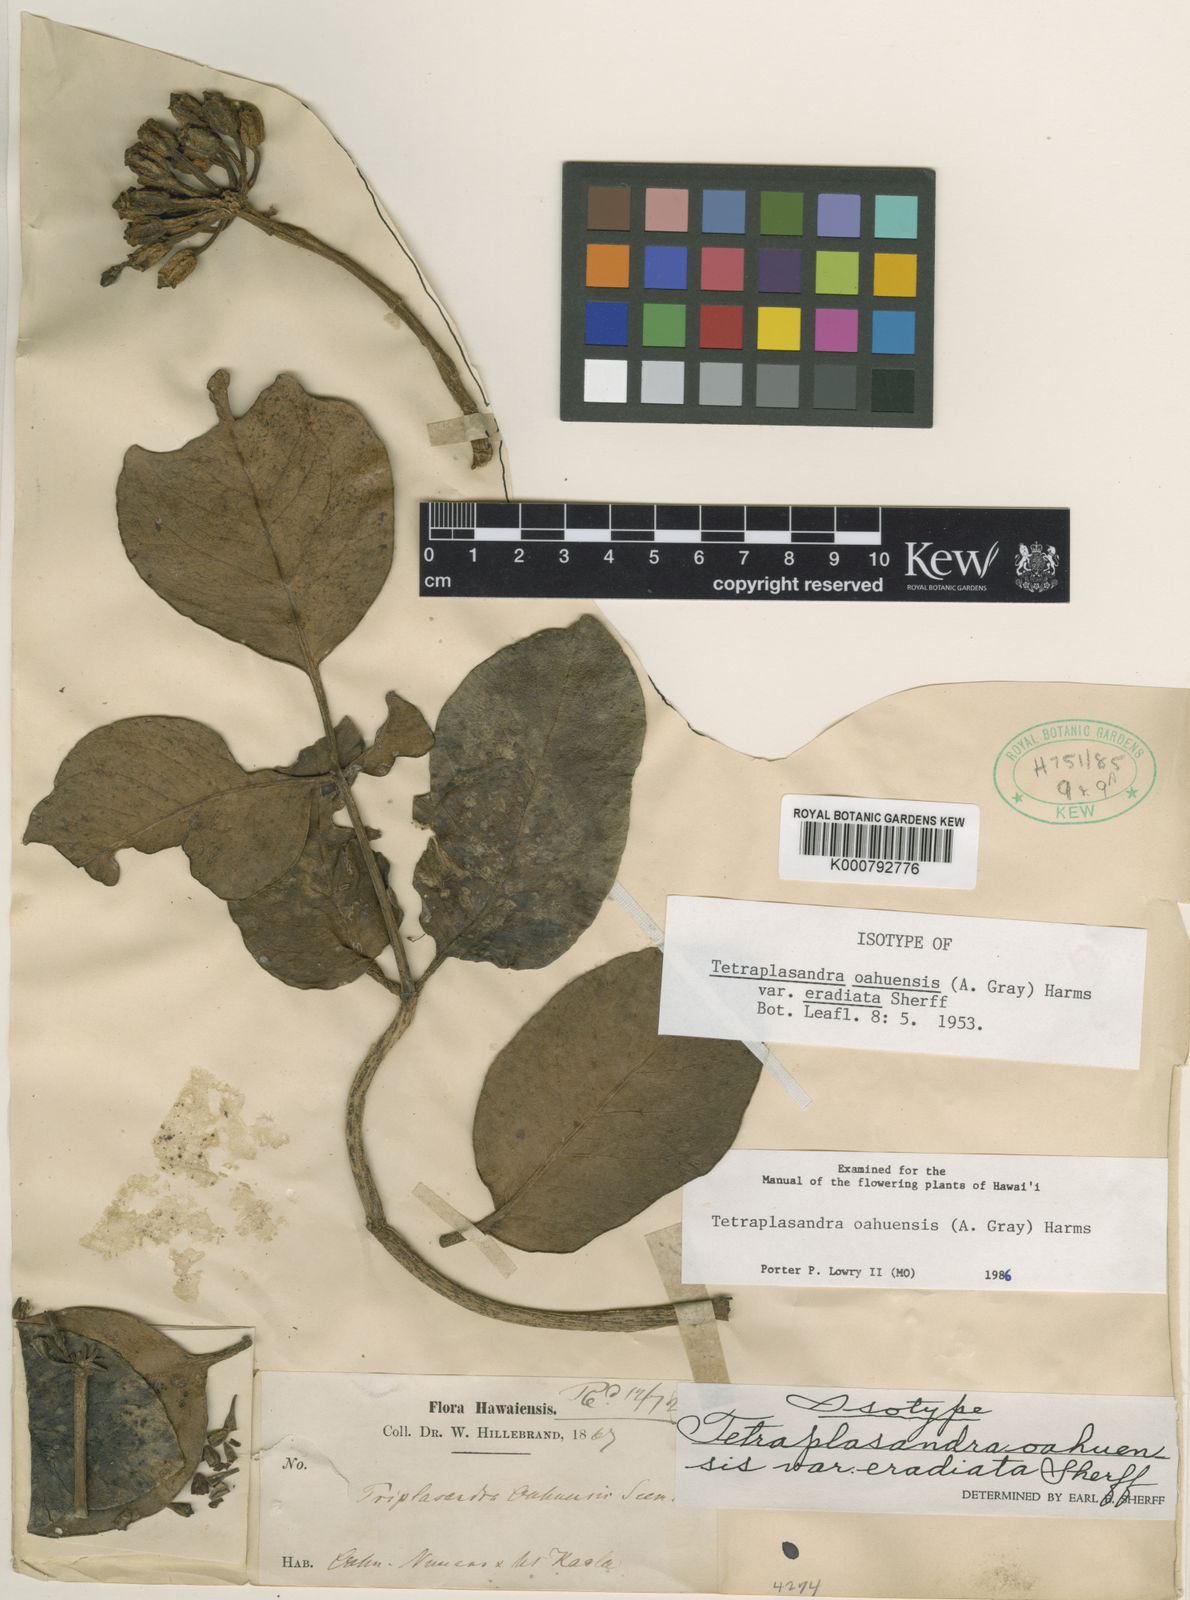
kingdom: Plantae
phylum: Tracheophyta
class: Magnoliopsida
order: Apiales
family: Araliaceae
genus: Polyscias
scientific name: Polyscias oahuensis
